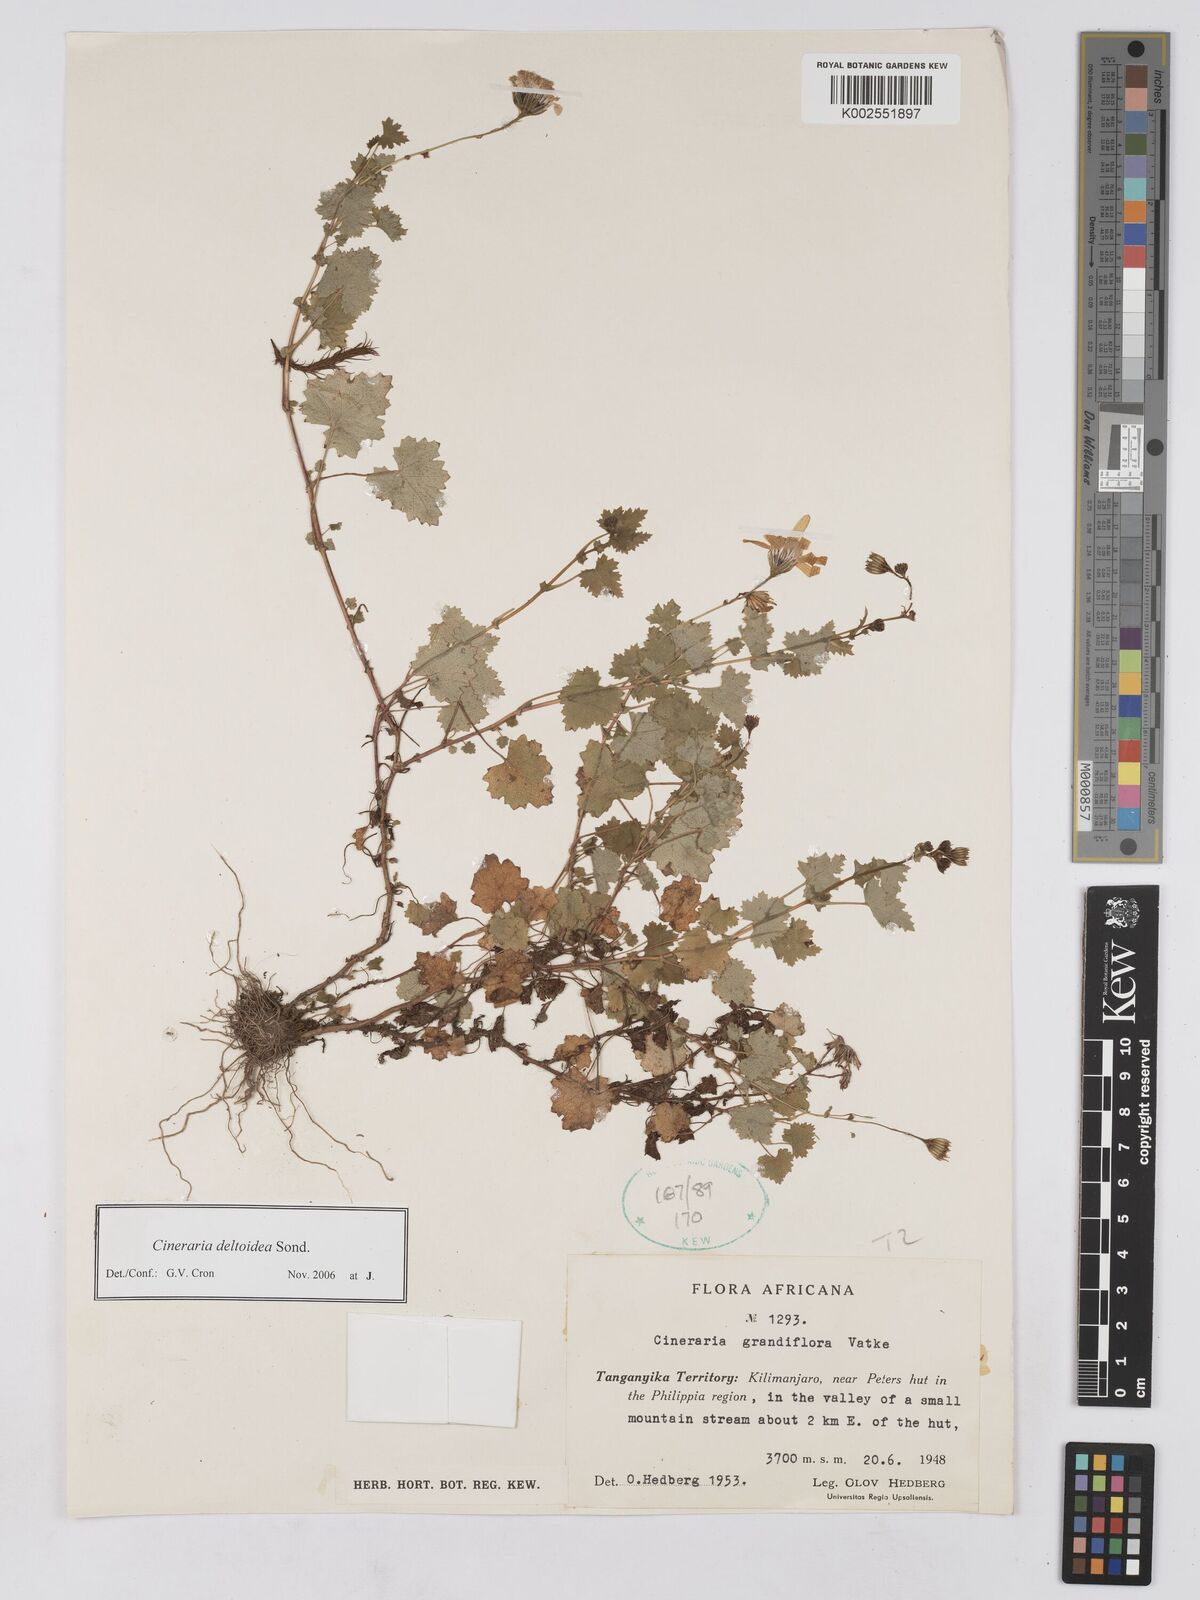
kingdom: Plantae
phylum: Tracheophyta
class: Magnoliopsida
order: Asterales
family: Asteraceae
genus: Cineraria
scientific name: Cineraria deltoidea
